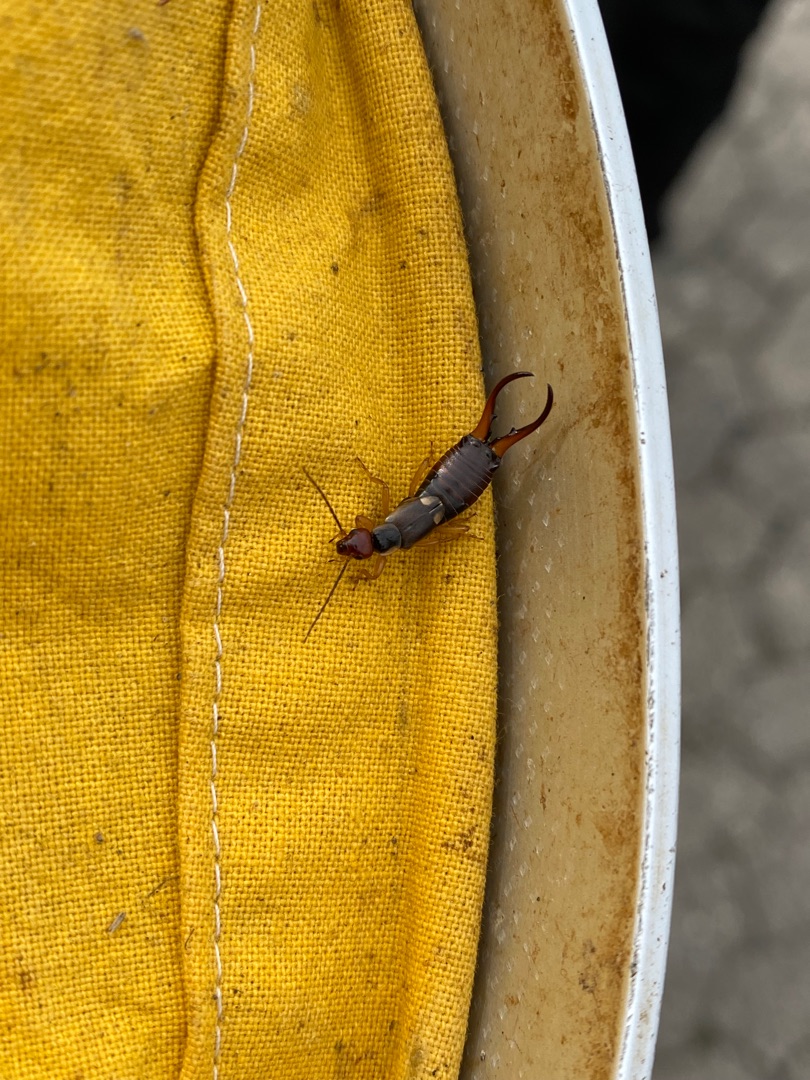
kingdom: Animalia
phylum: Arthropoda
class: Insecta
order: Dermaptera
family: Forficulidae
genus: Forficula
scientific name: Forficula auricularia
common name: Almindelig ørentvist
